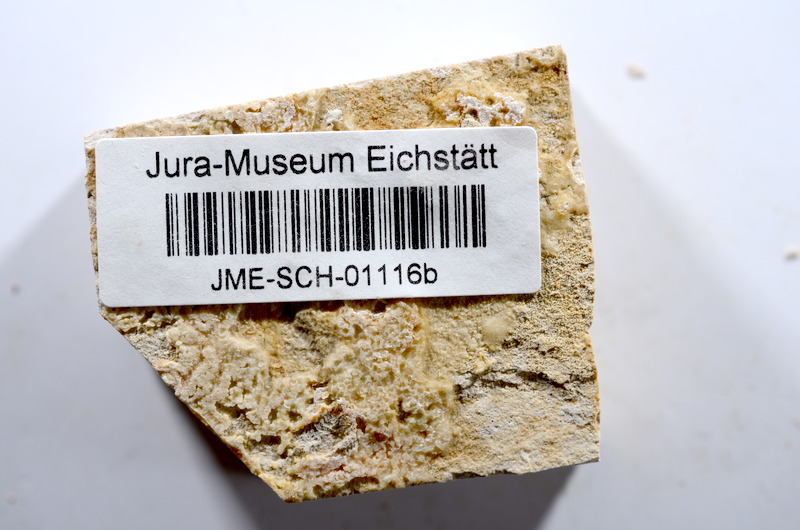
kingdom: Animalia
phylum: Chordata
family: Ascalaboidae
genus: Tharsis
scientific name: Tharsis dubius
